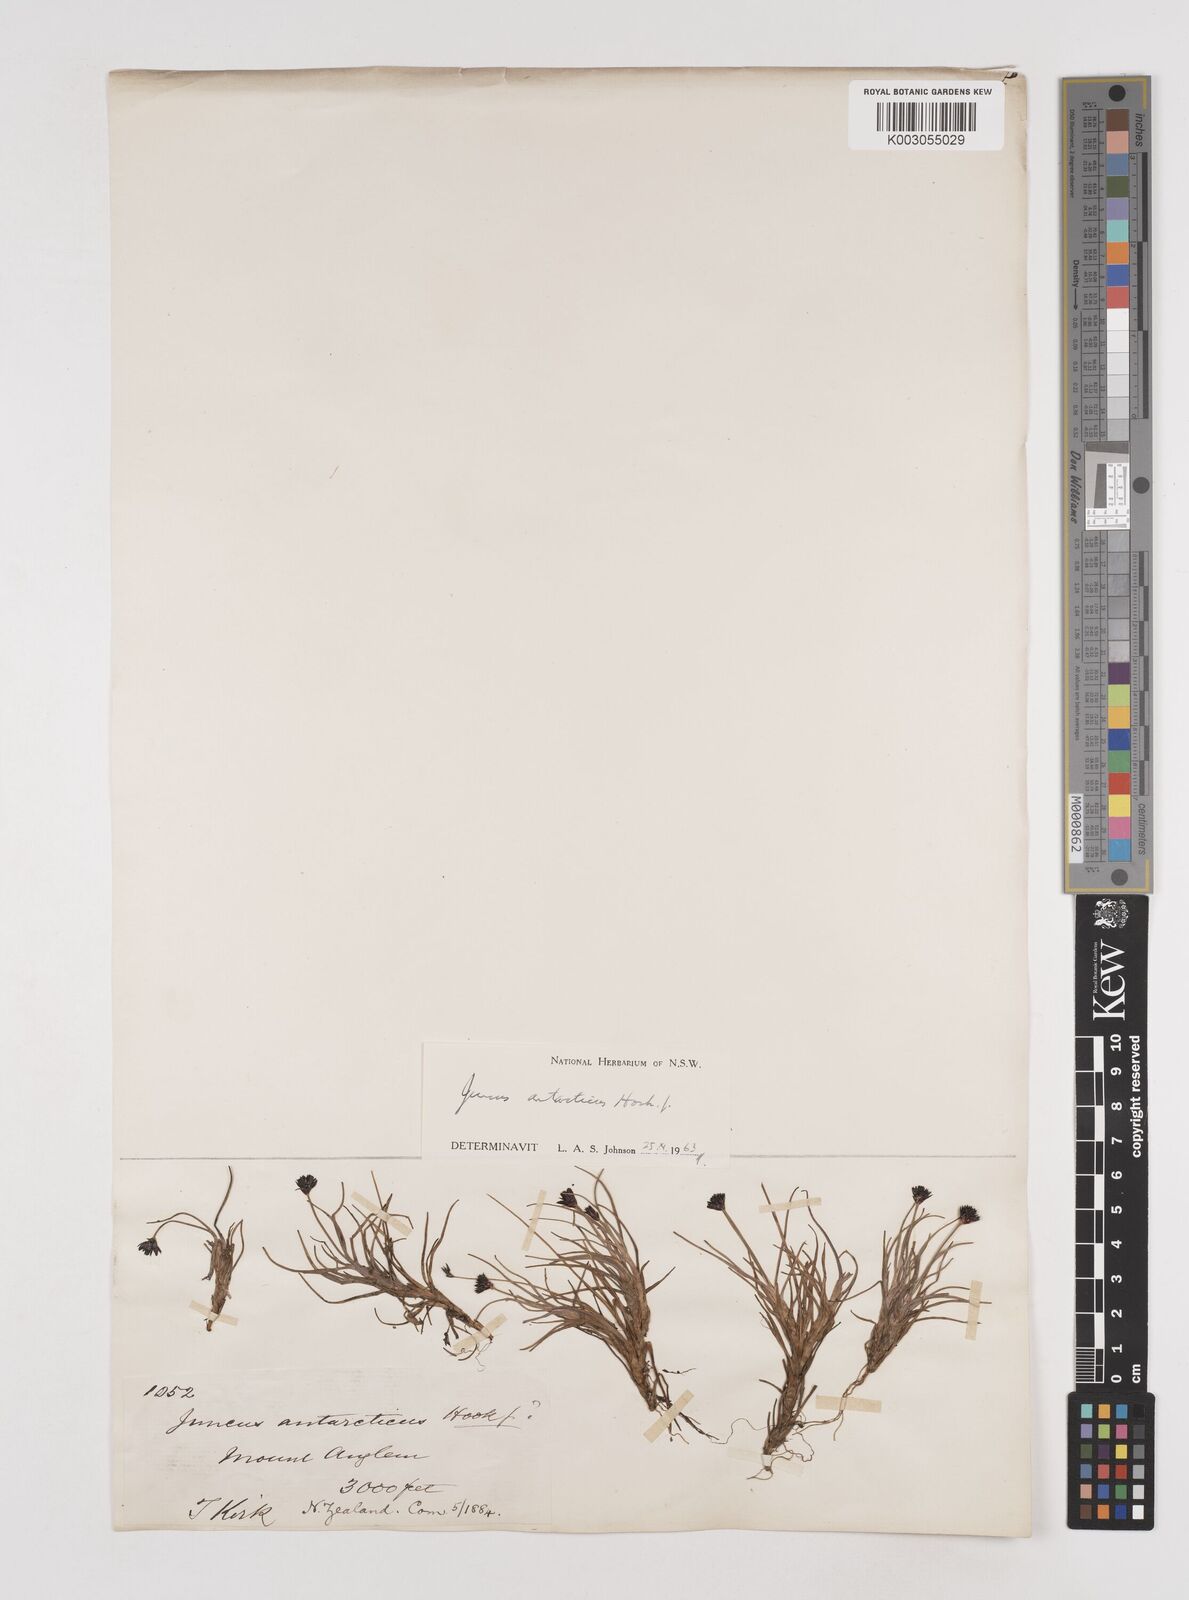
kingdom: Plantae
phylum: Tracheophyta
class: Liliopsida
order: Poales
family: Juncaceae
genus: Juncus
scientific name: Juncus antarcticus
